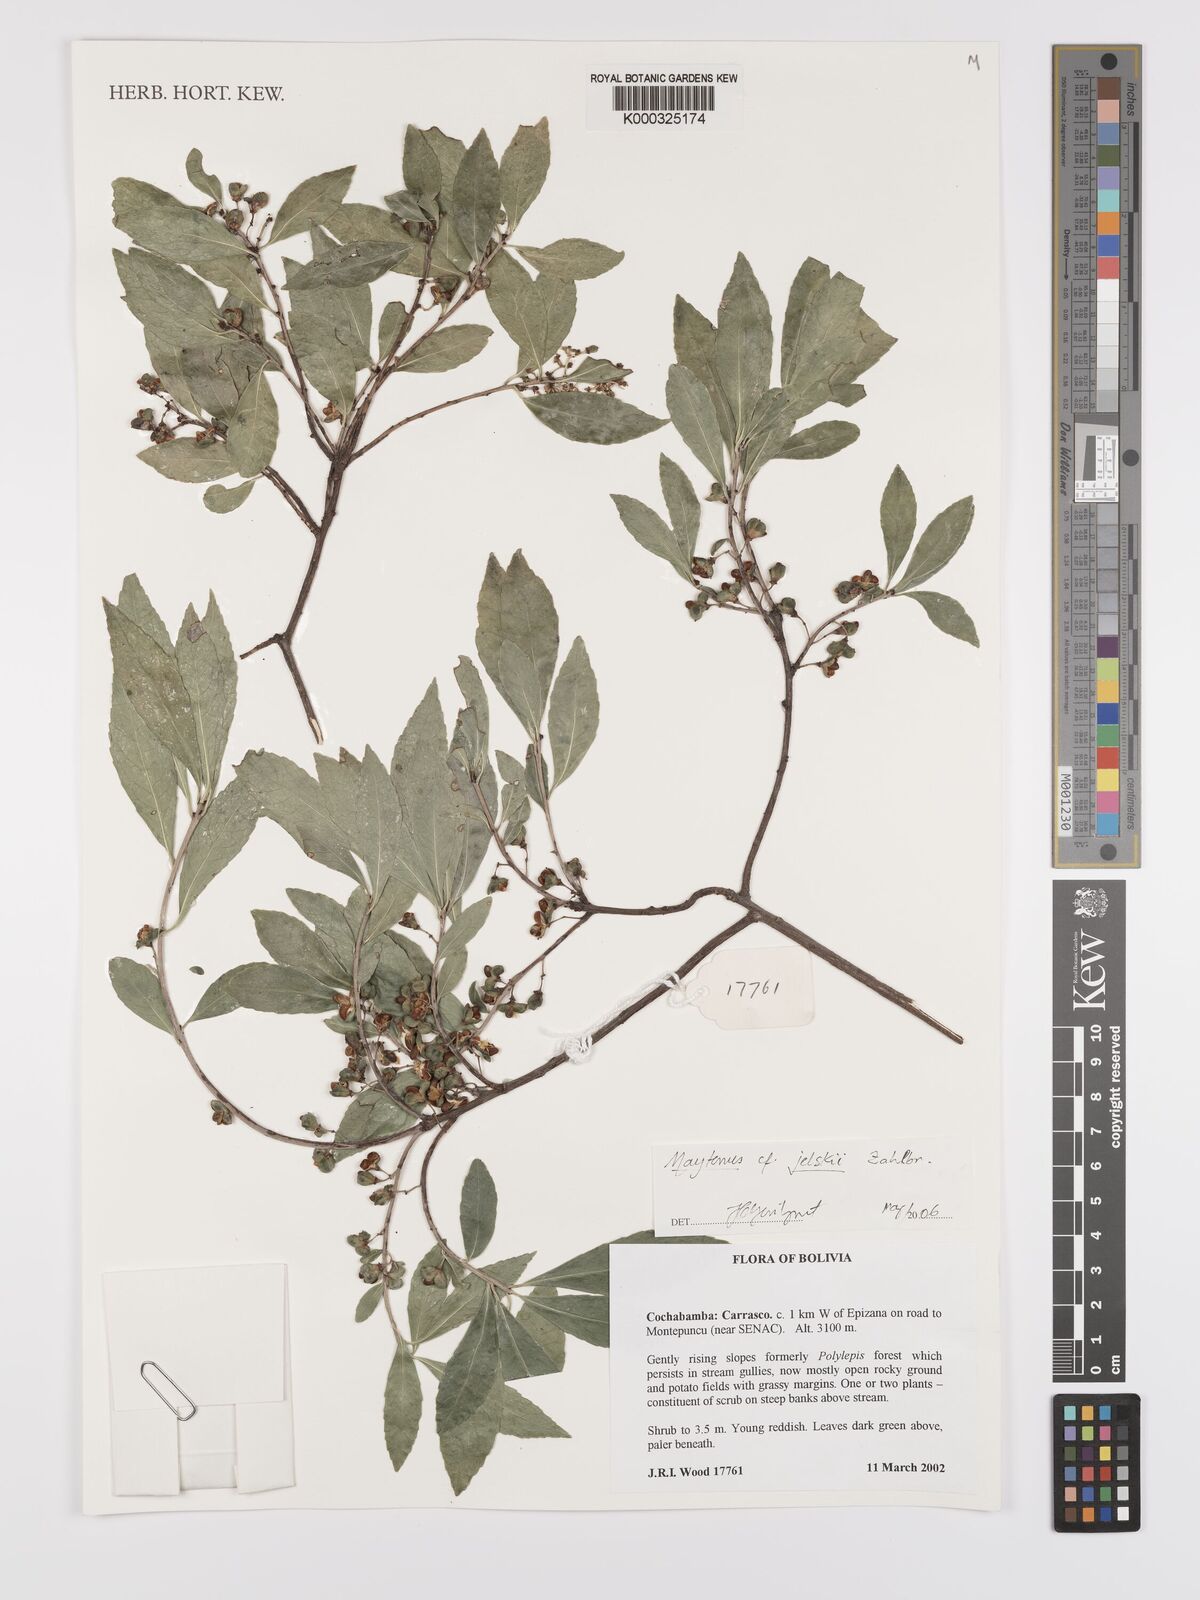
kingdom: Plantae
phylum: Tracheophyta
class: Magnoliopsida
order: Celastrales
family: Celastraceae
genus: Maytenus
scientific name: Maytenus
